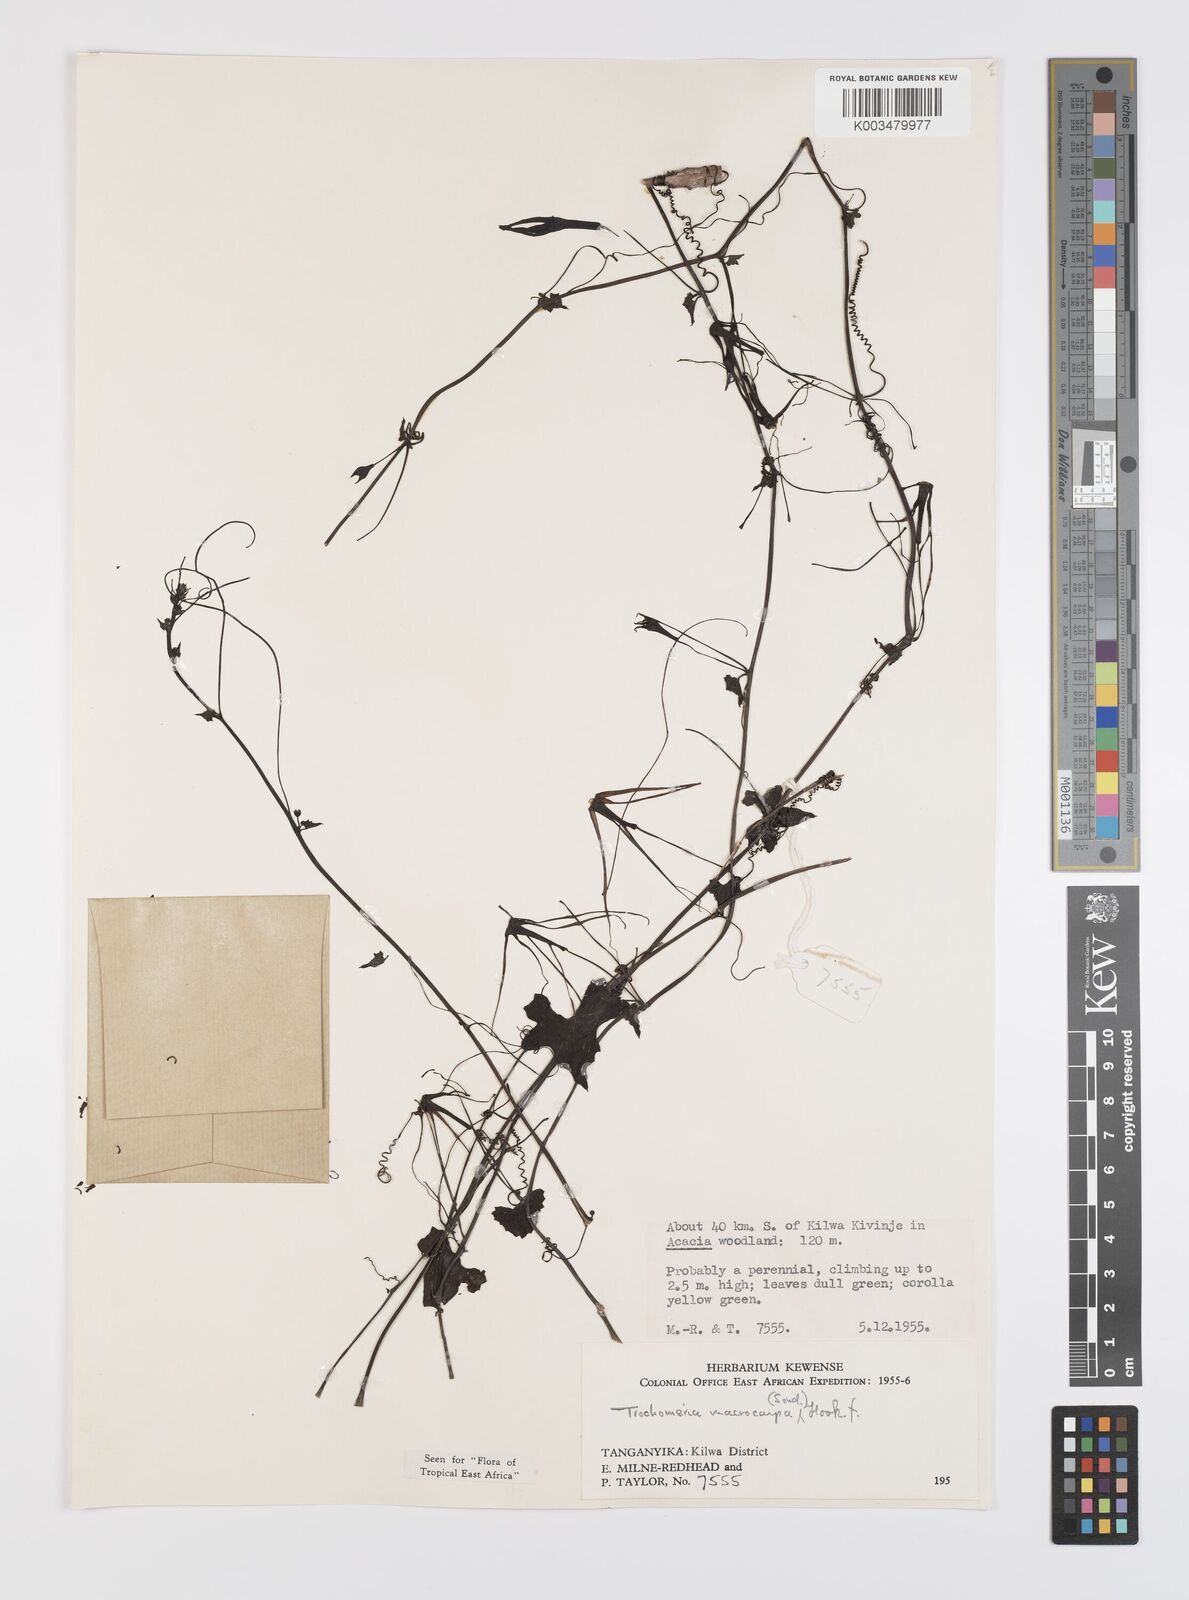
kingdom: Plantae
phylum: Tracheophyta
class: Magnoliopsida
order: Cucurbitales
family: Cucurbitaceae
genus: Trochomeria
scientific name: Trochomeria macrocarpa
